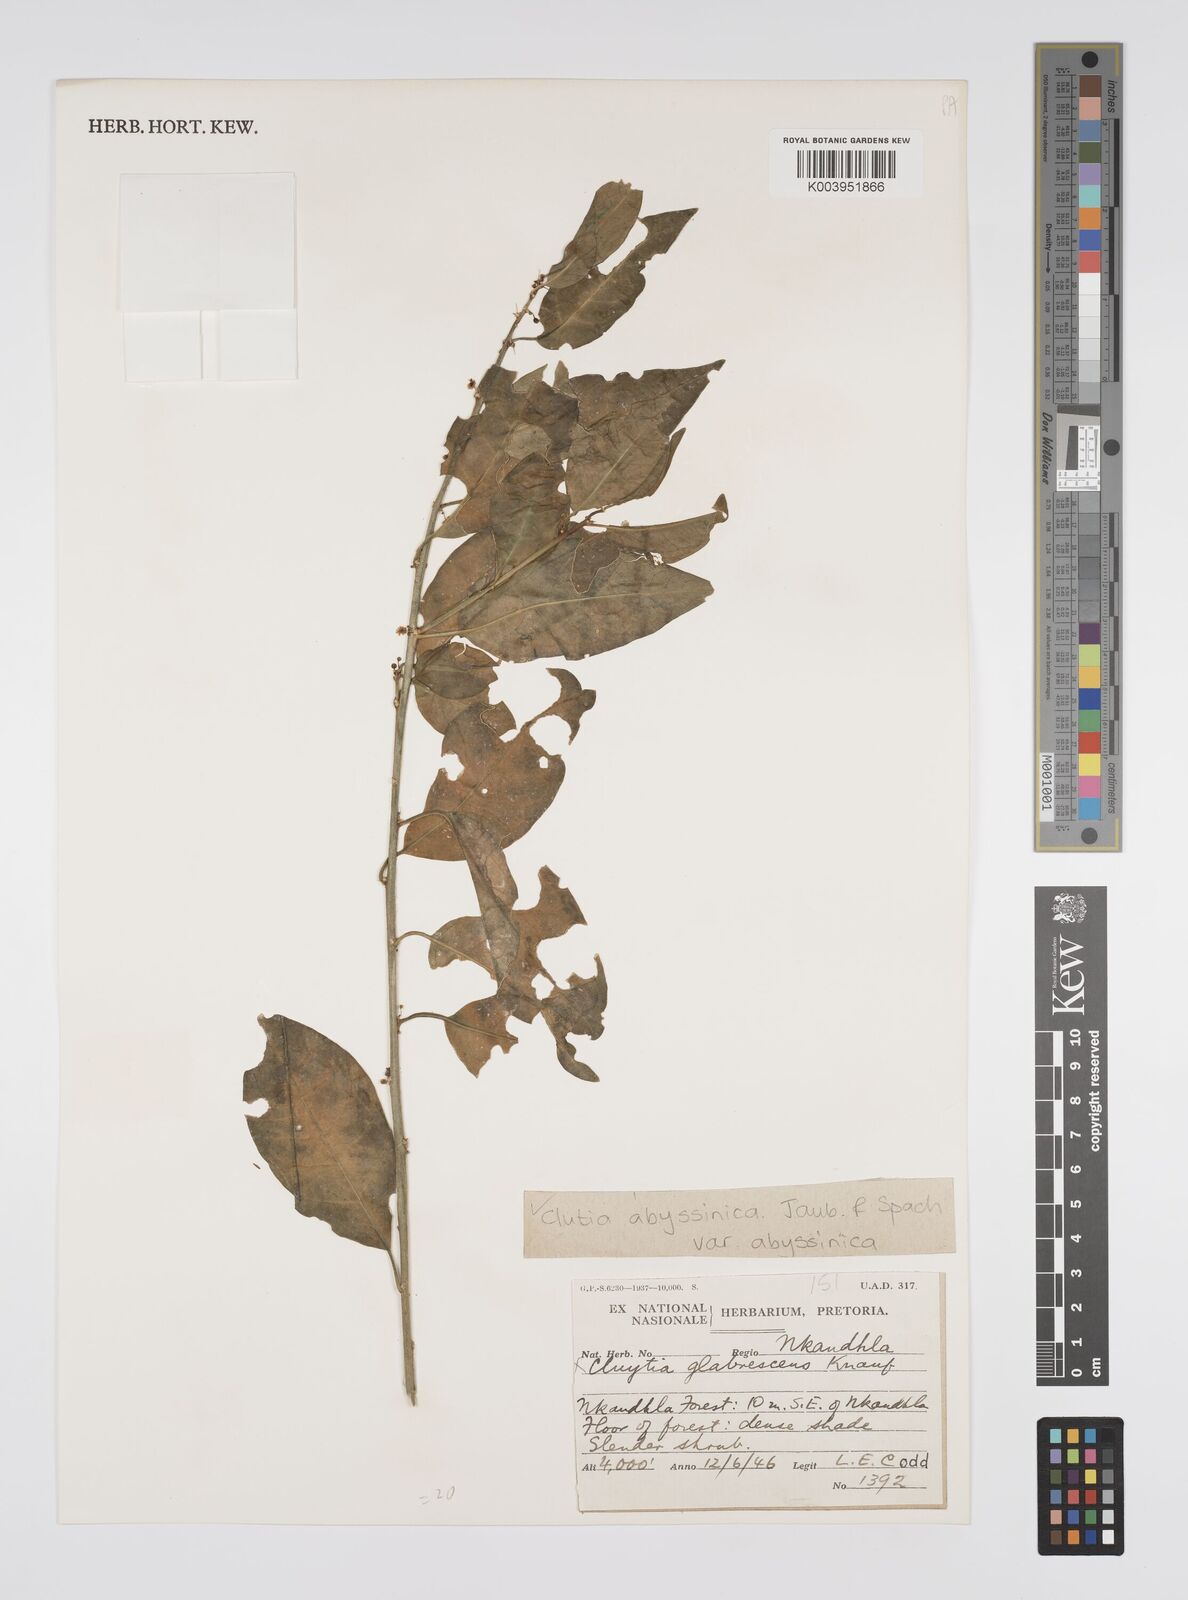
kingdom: Plantae
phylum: Tracheophyta
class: Magnoliopsida
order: Malpighiales
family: Peraceae
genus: Clutia
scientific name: Clutia abyssinica
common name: Large lightning bush
